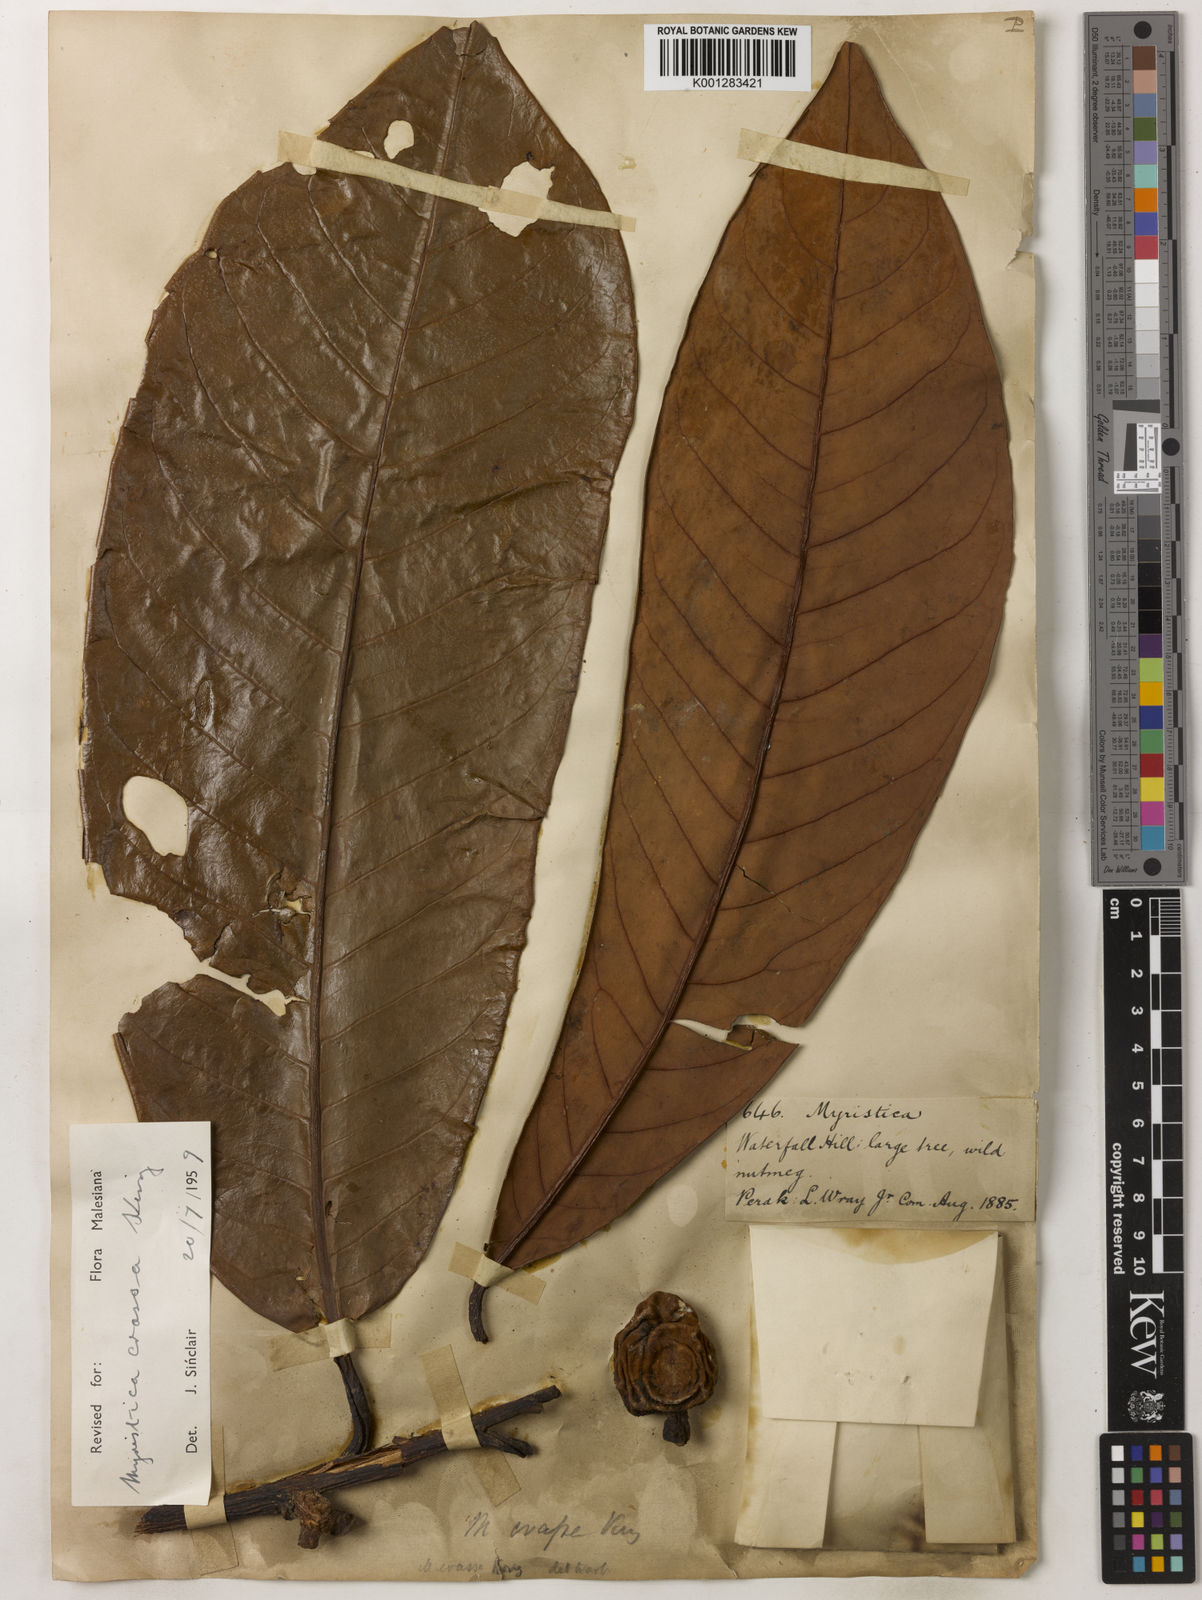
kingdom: Plantae
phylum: Tracheophyta
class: Magnoliopsida
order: Magnoliales
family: Myristicaceae
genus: Myristica
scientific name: Myristica crassa
